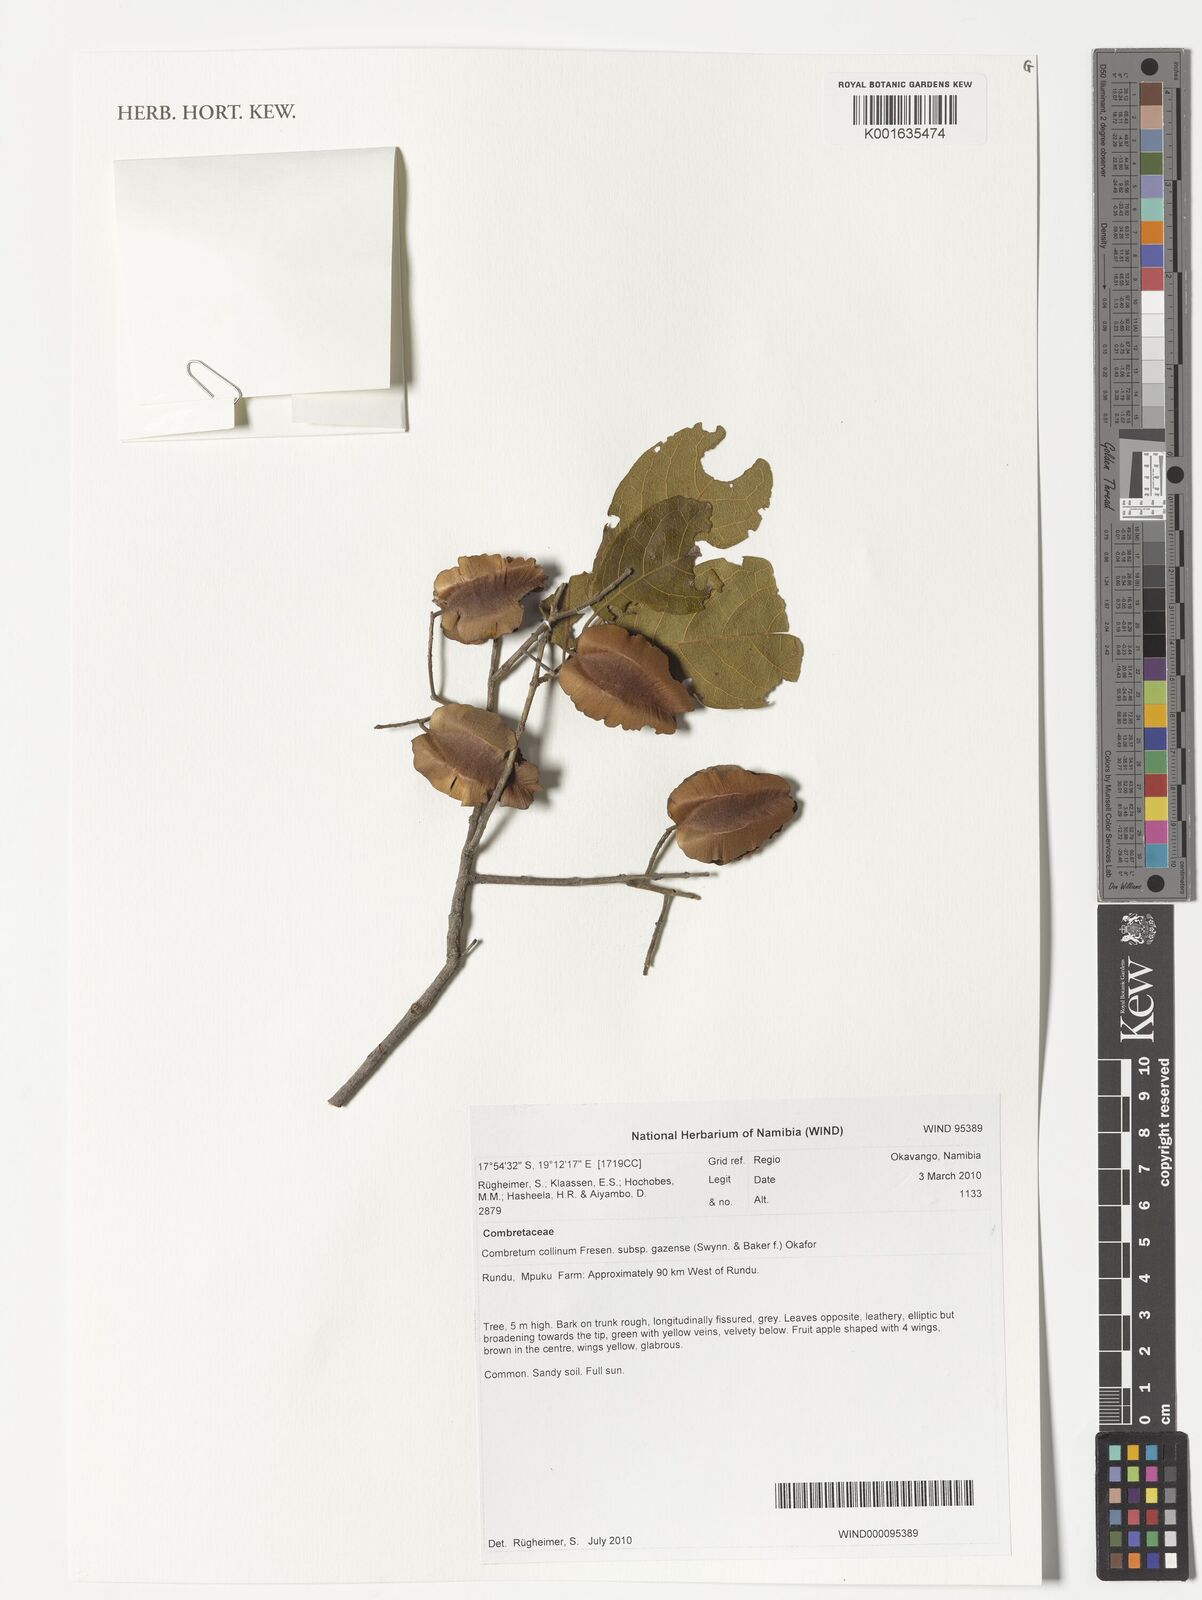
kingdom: Plantae
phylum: Tracheophyta
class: Magnoliopsida
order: Myrtales
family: Combretaceae
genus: Combretum
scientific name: Combretum collinum
